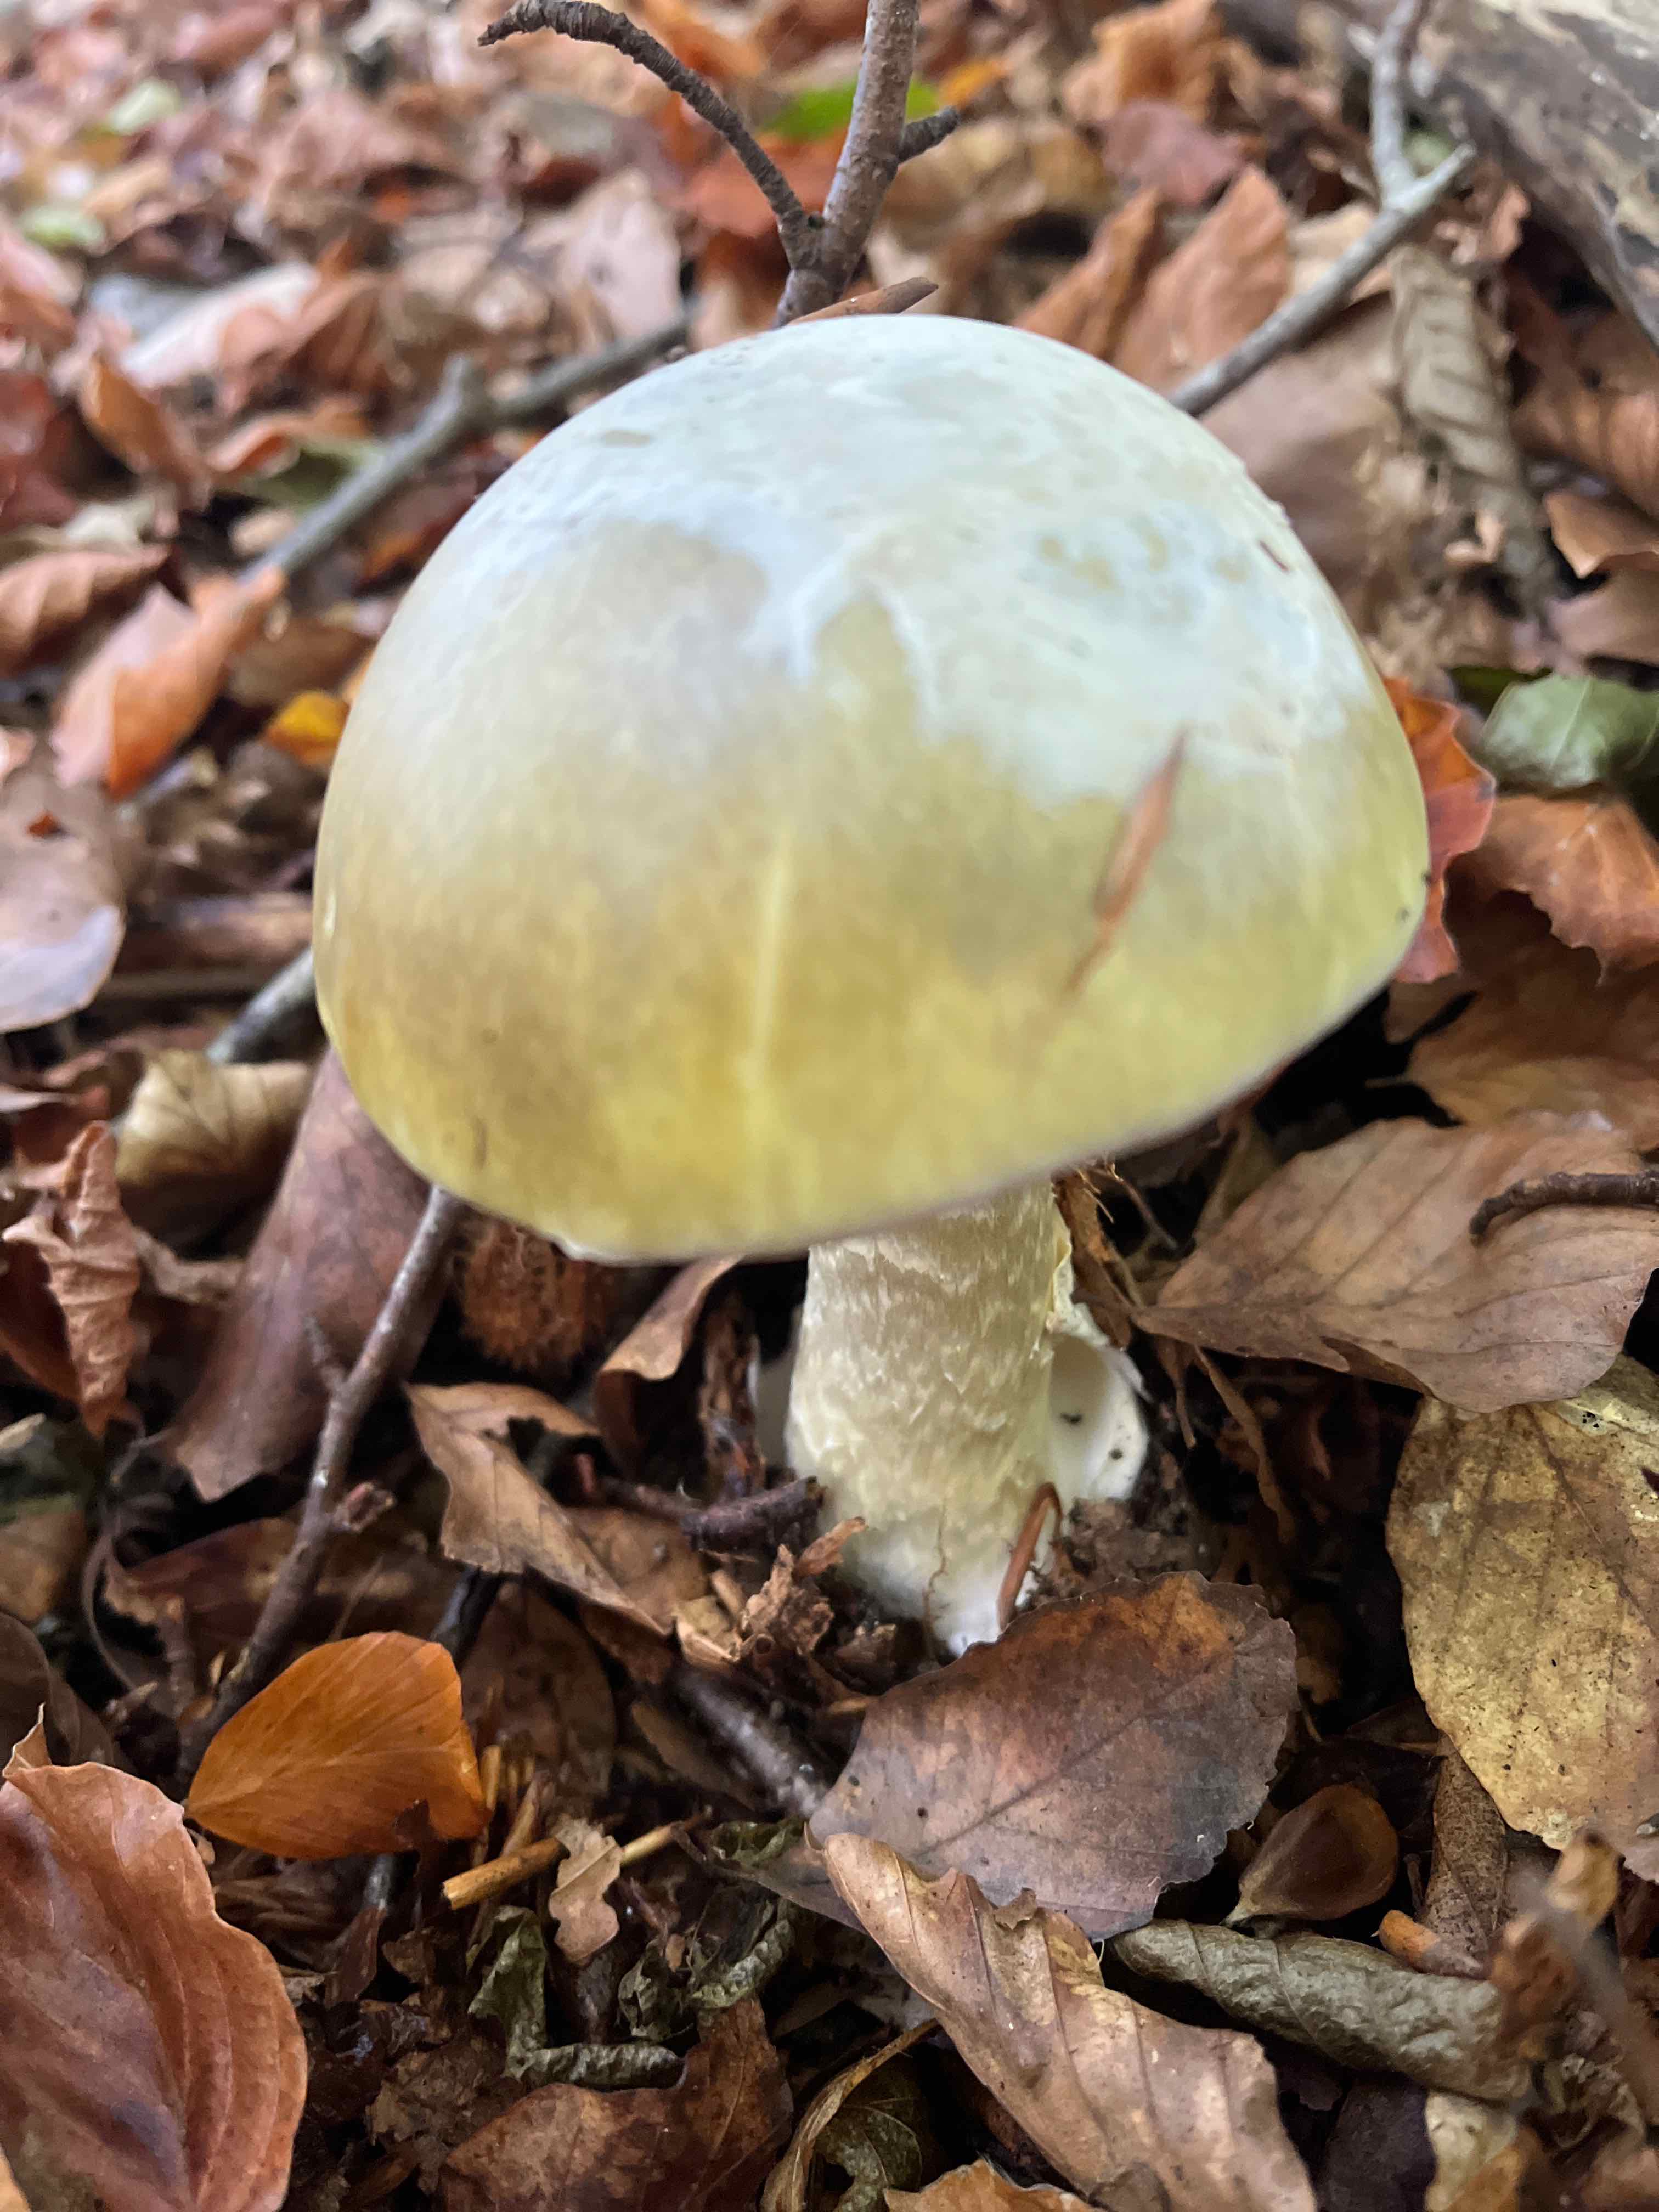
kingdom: Fungi
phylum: Basidiomycota
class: Agaricomycetes
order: Agaricales
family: Amanitaceae
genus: Amanita
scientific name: Amanita phalloides
